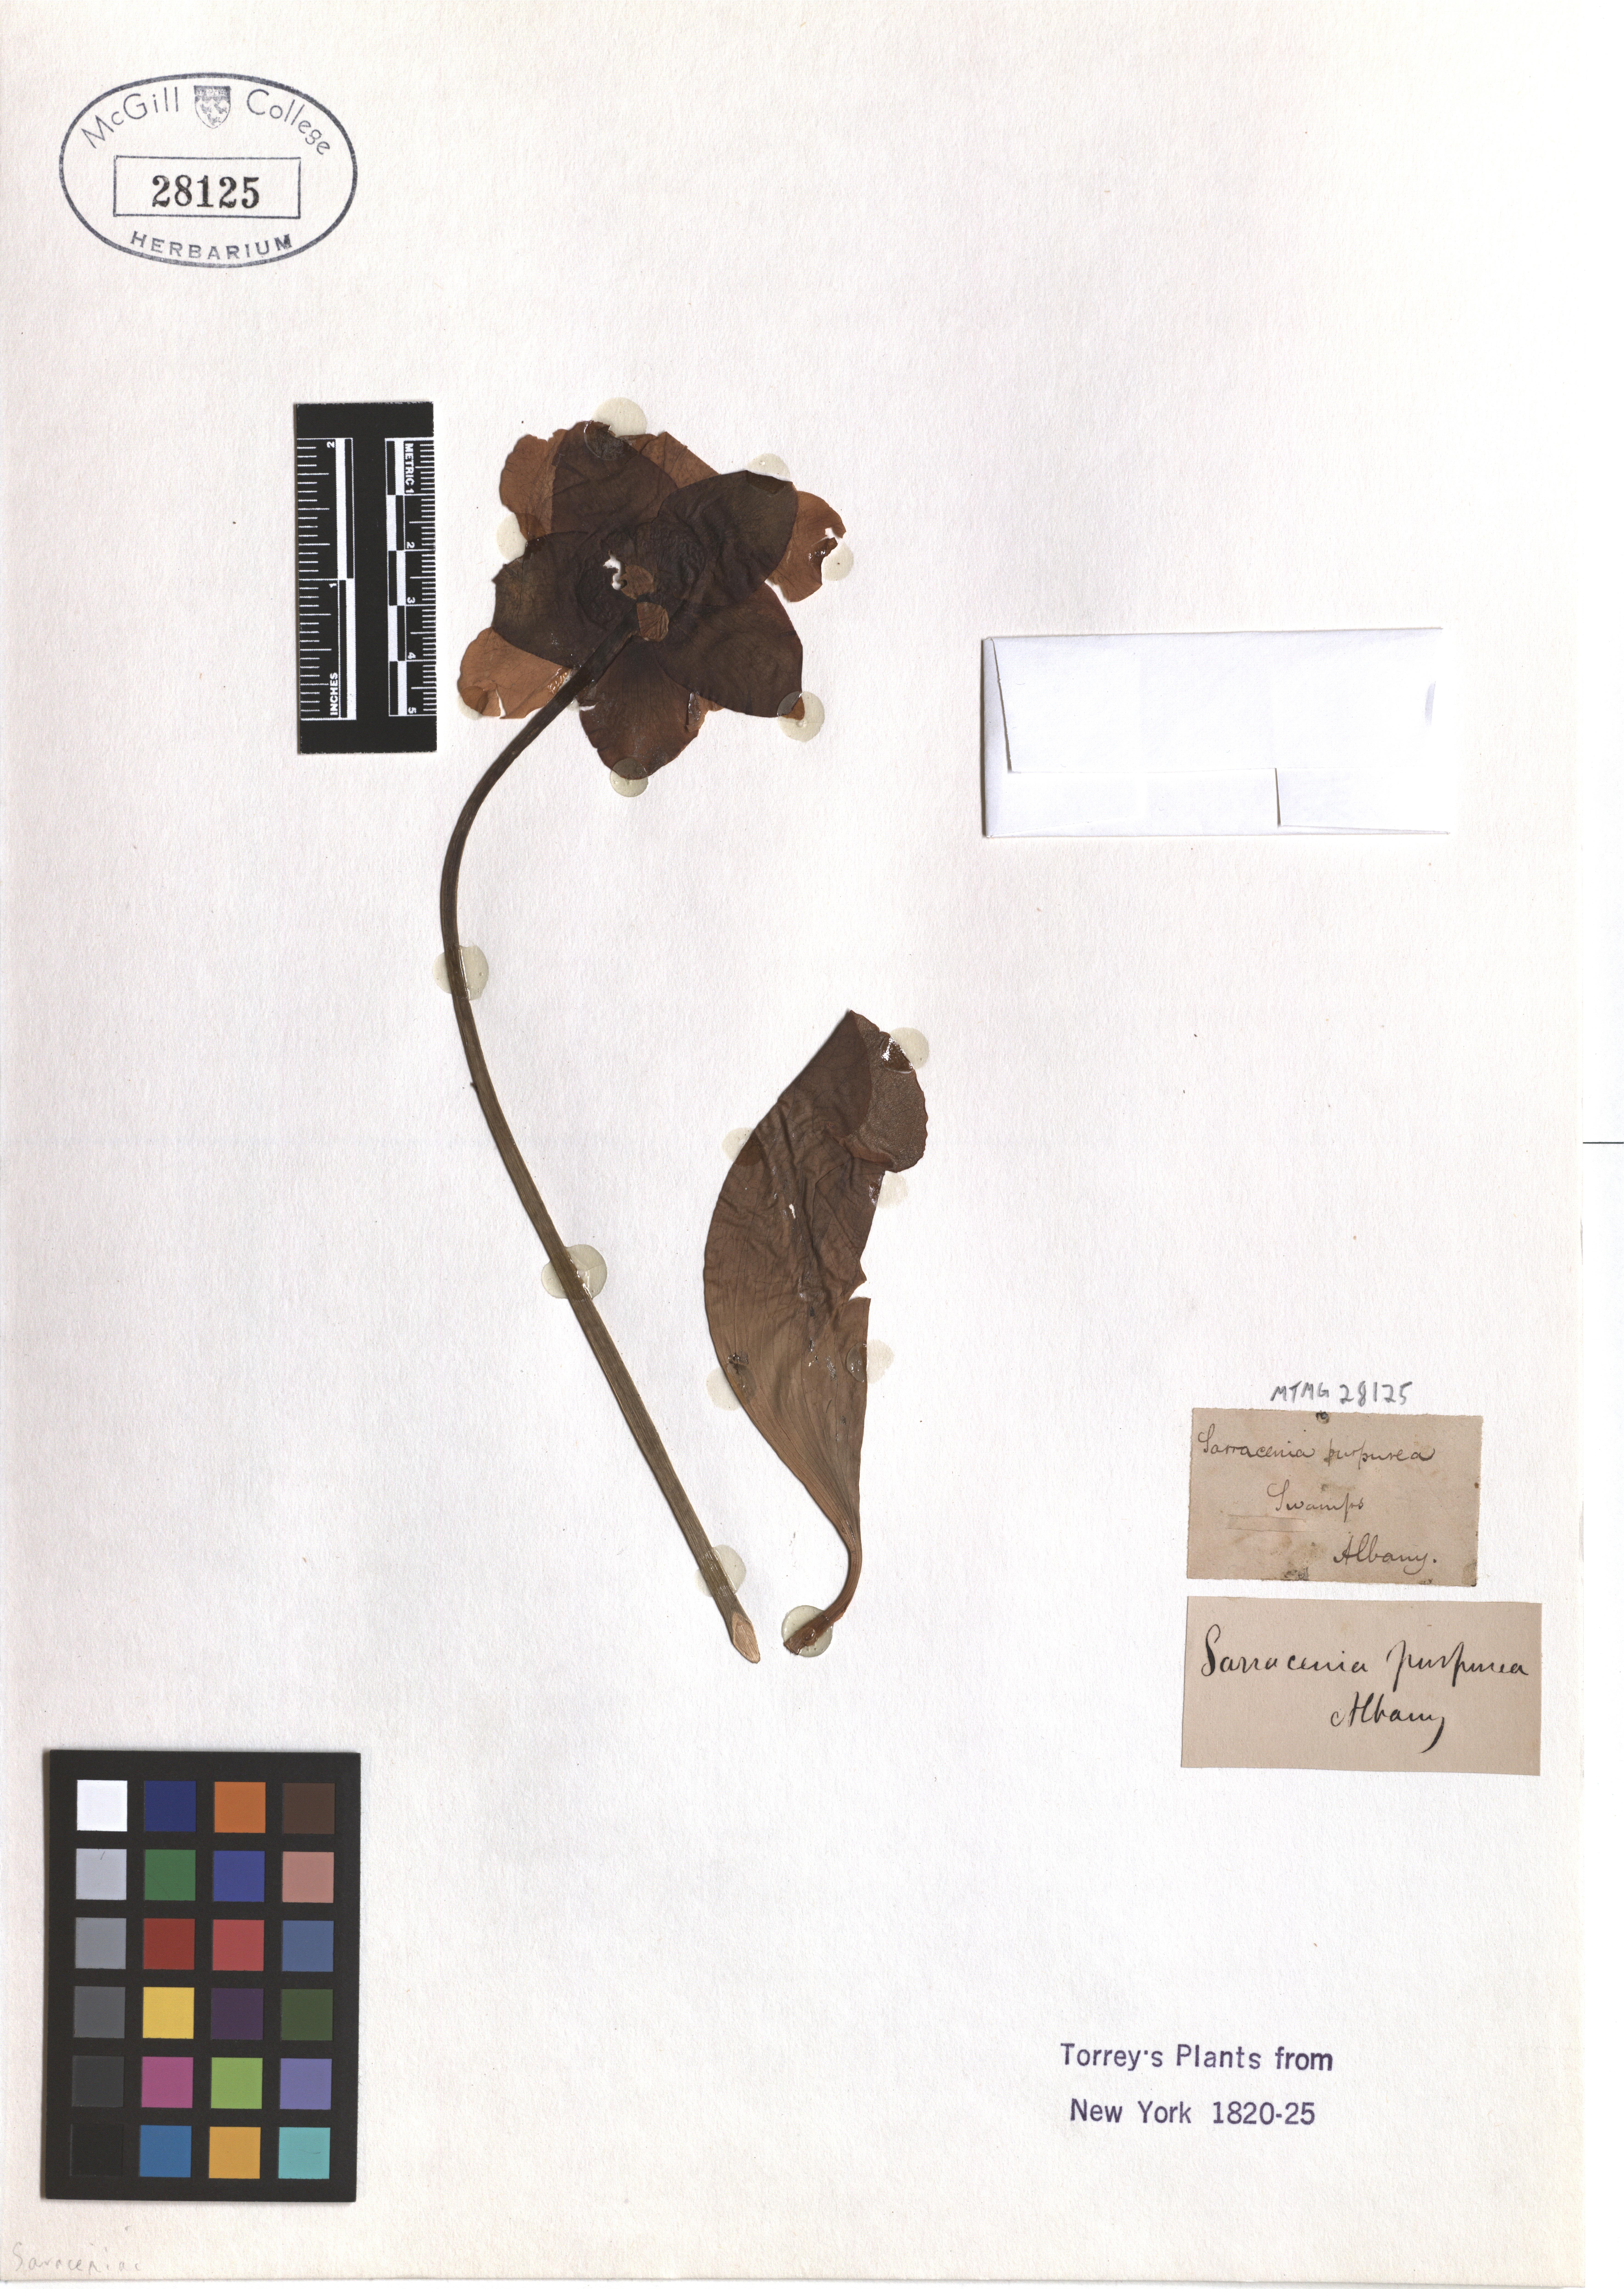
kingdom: Plantae
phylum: Tracheophyta
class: Magnoliopsida
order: Ericales
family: Sarraceniaceae
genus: Sarracenia
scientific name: Sarracenia purpurea
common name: Pitcherplant
